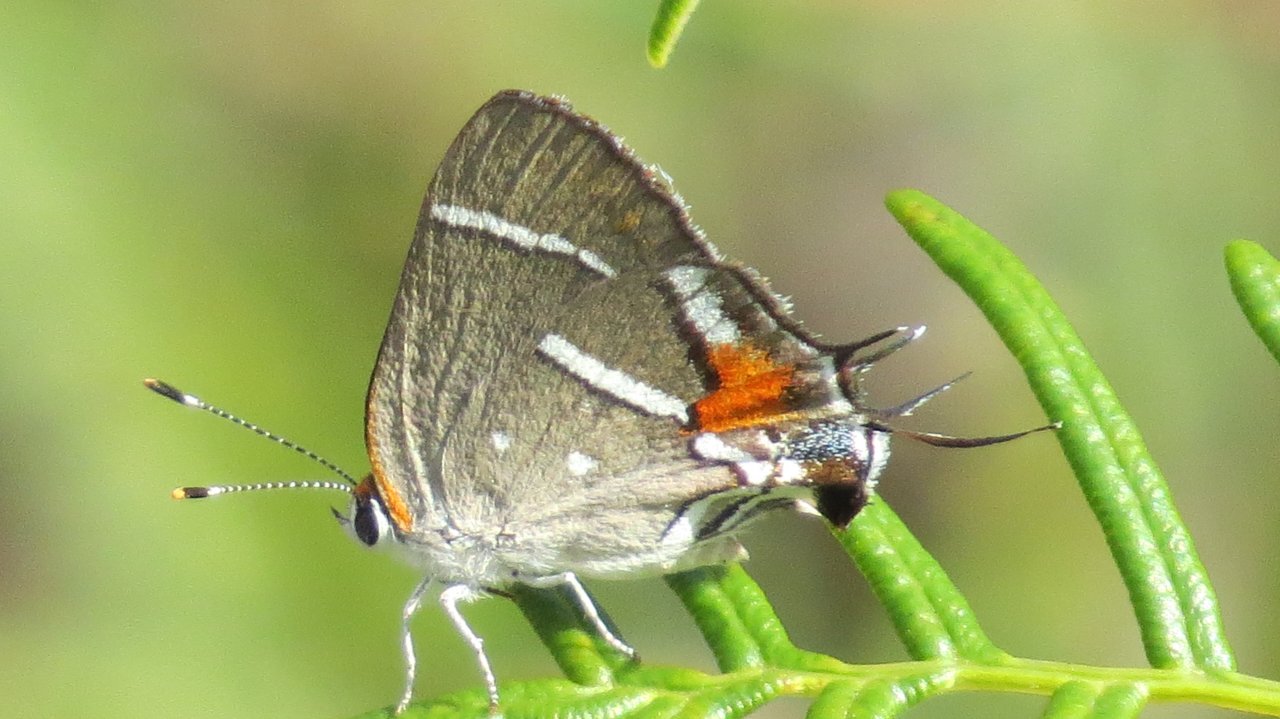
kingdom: Animalia
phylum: Arthropoda
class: Insecta
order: Lepidoptera
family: Lycaenidae
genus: Strymon
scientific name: Strymon acis
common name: Caribbean Scrub-Hairstreak
